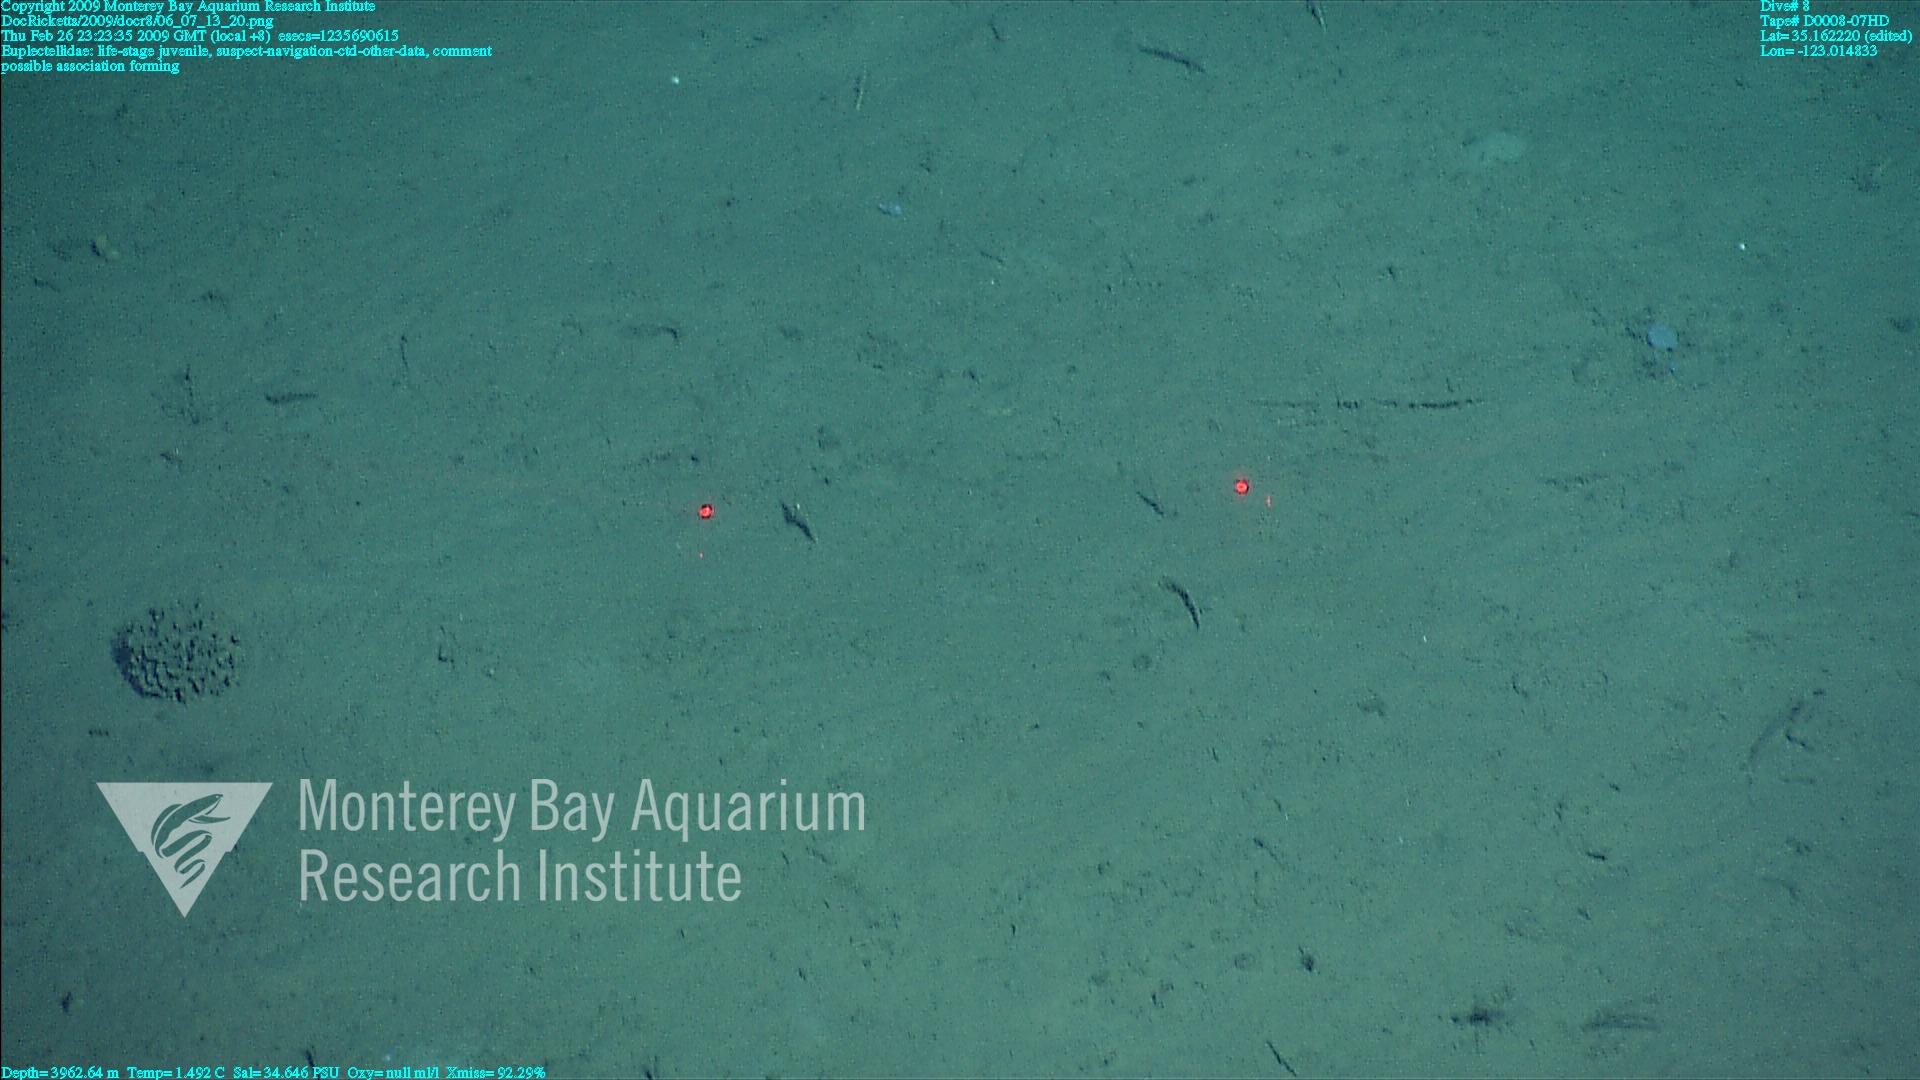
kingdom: Animalia
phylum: Porifera
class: Hexactinellida
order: Lyssacinosida
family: Euplectellidae
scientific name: Euplectellidae
